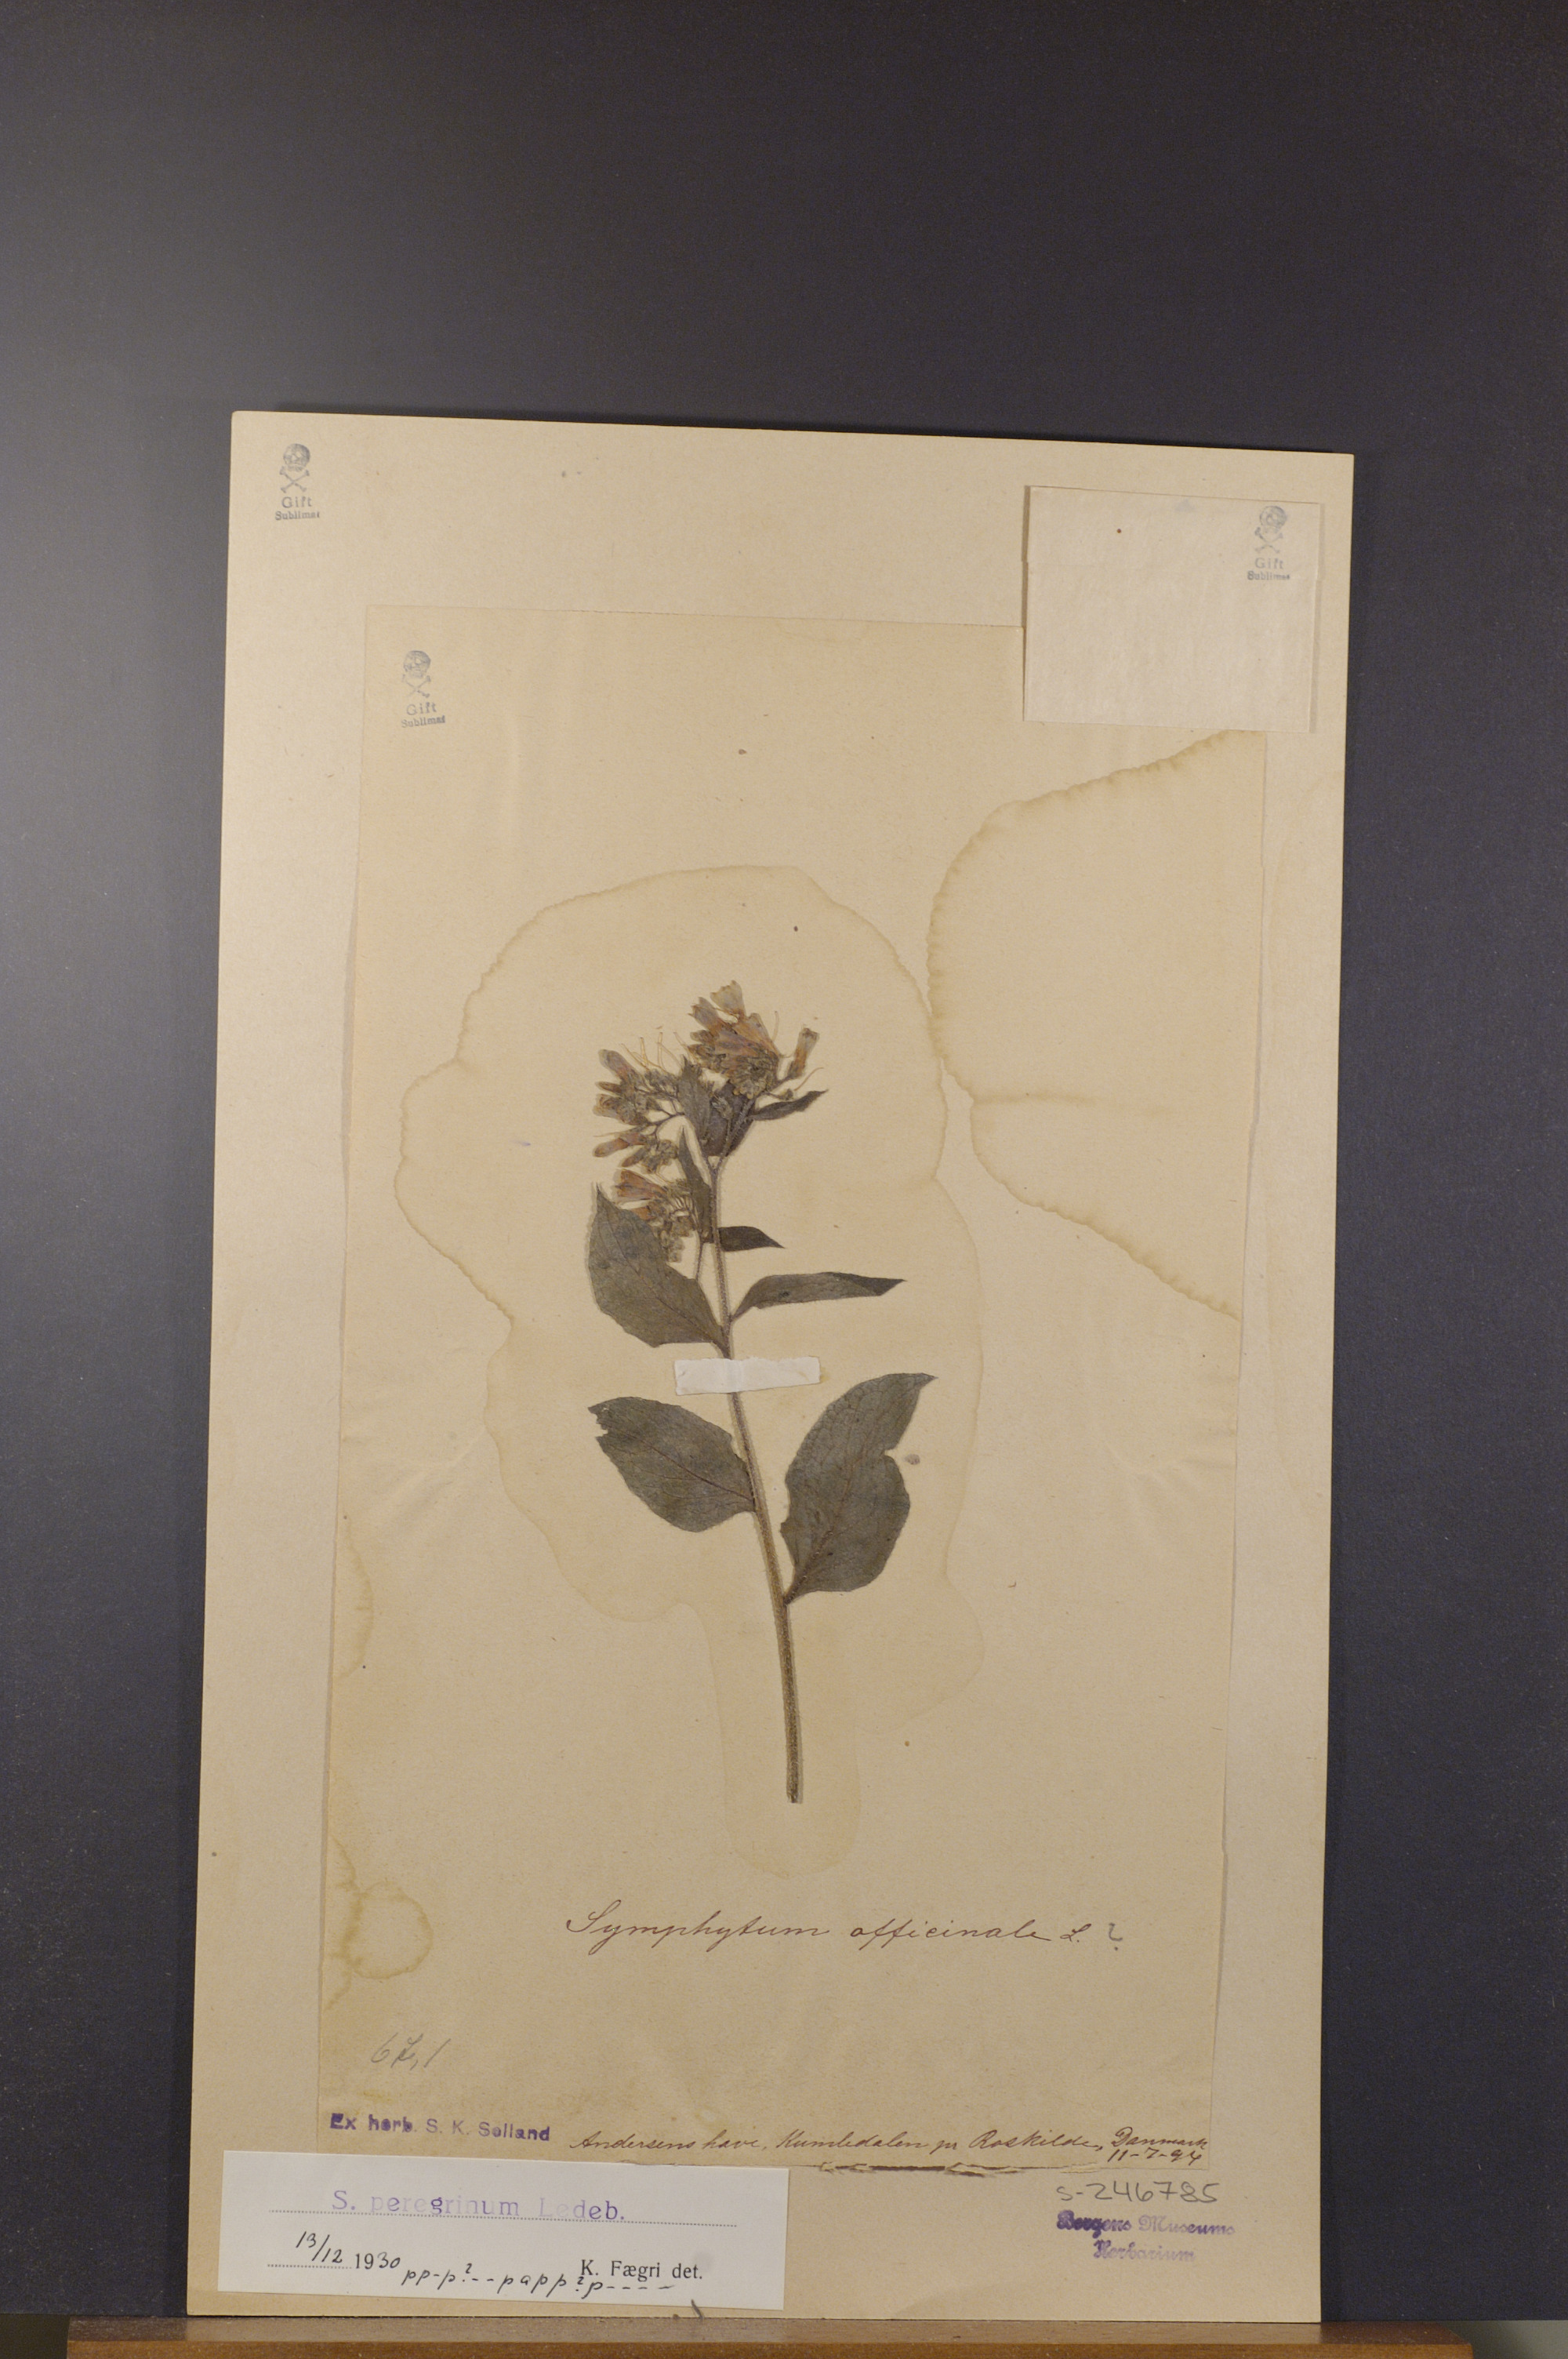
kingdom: Plantae
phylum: Tracheophyta
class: Magnoliopsida
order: Boraginales
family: Boraginaceae
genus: Symphytum
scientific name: Symphytum uplandicum
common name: Russian comfrey
